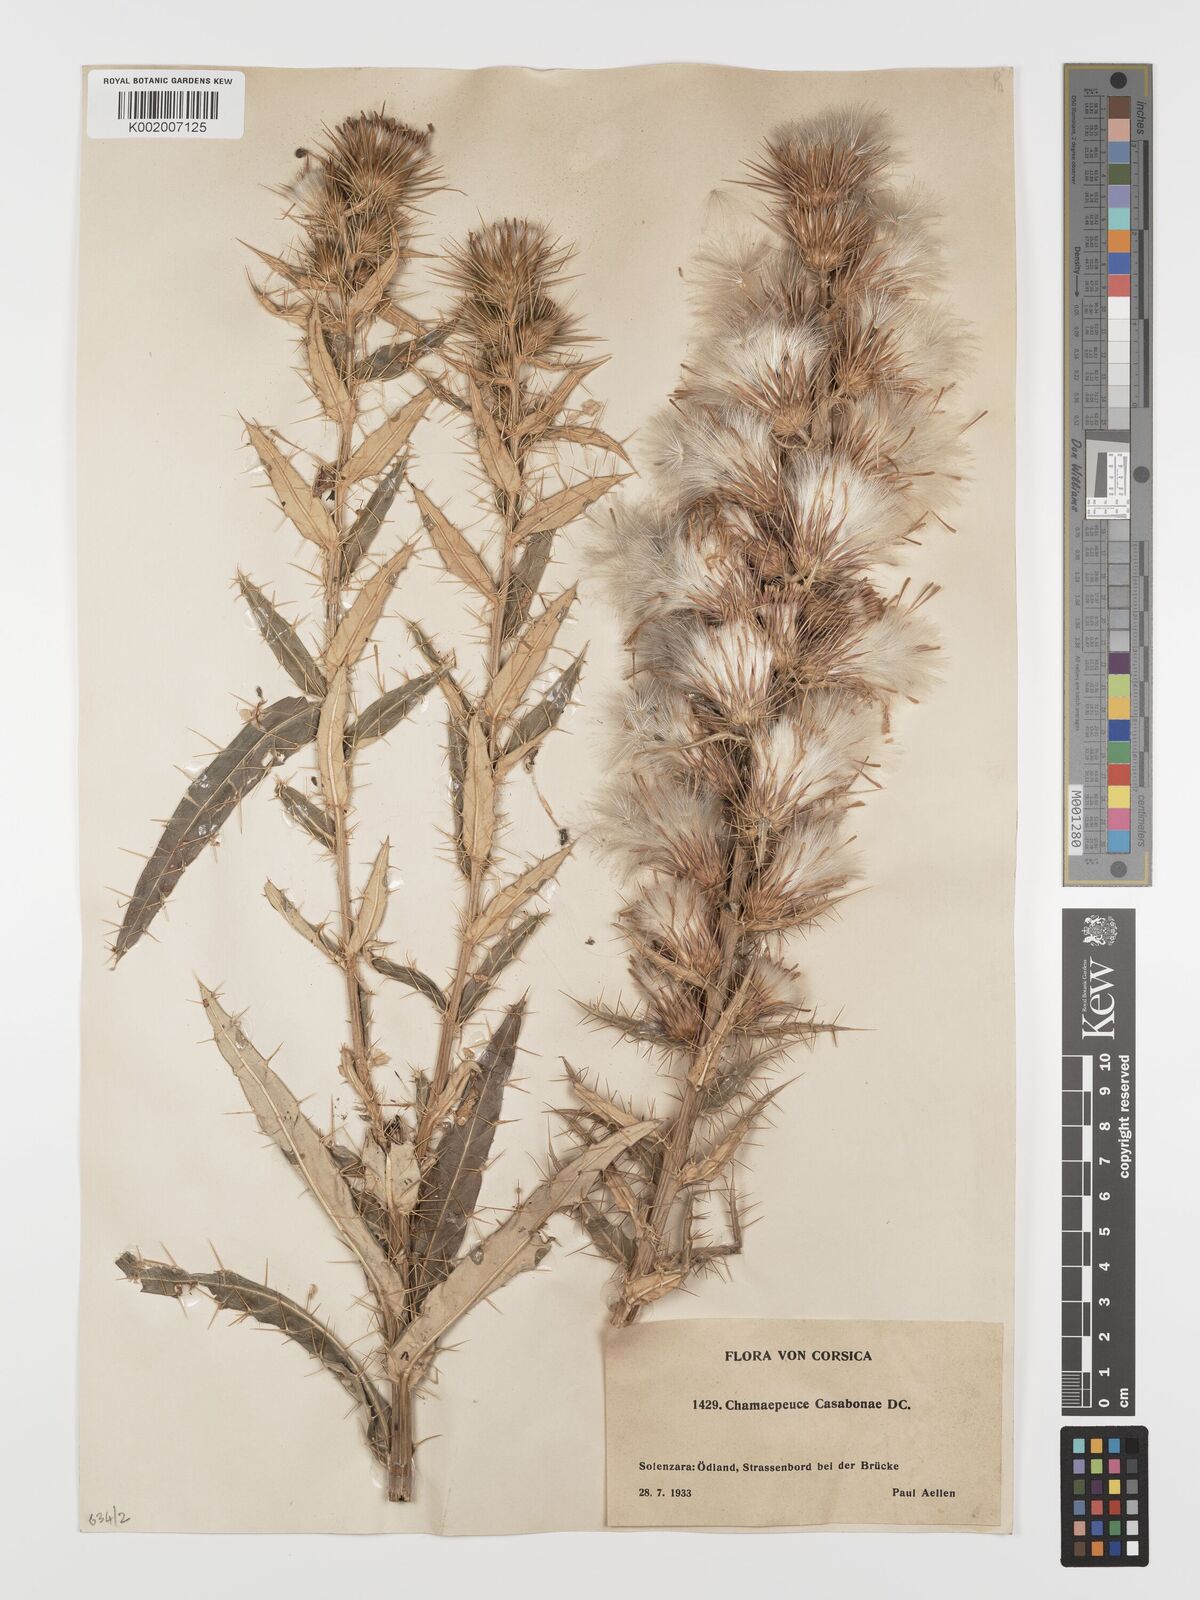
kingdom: Plantae
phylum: Tracheophyta
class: Magnoliopsida
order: Asterales
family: Asteraceae
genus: Ptilostemon
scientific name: Ptilostemon casabonae
